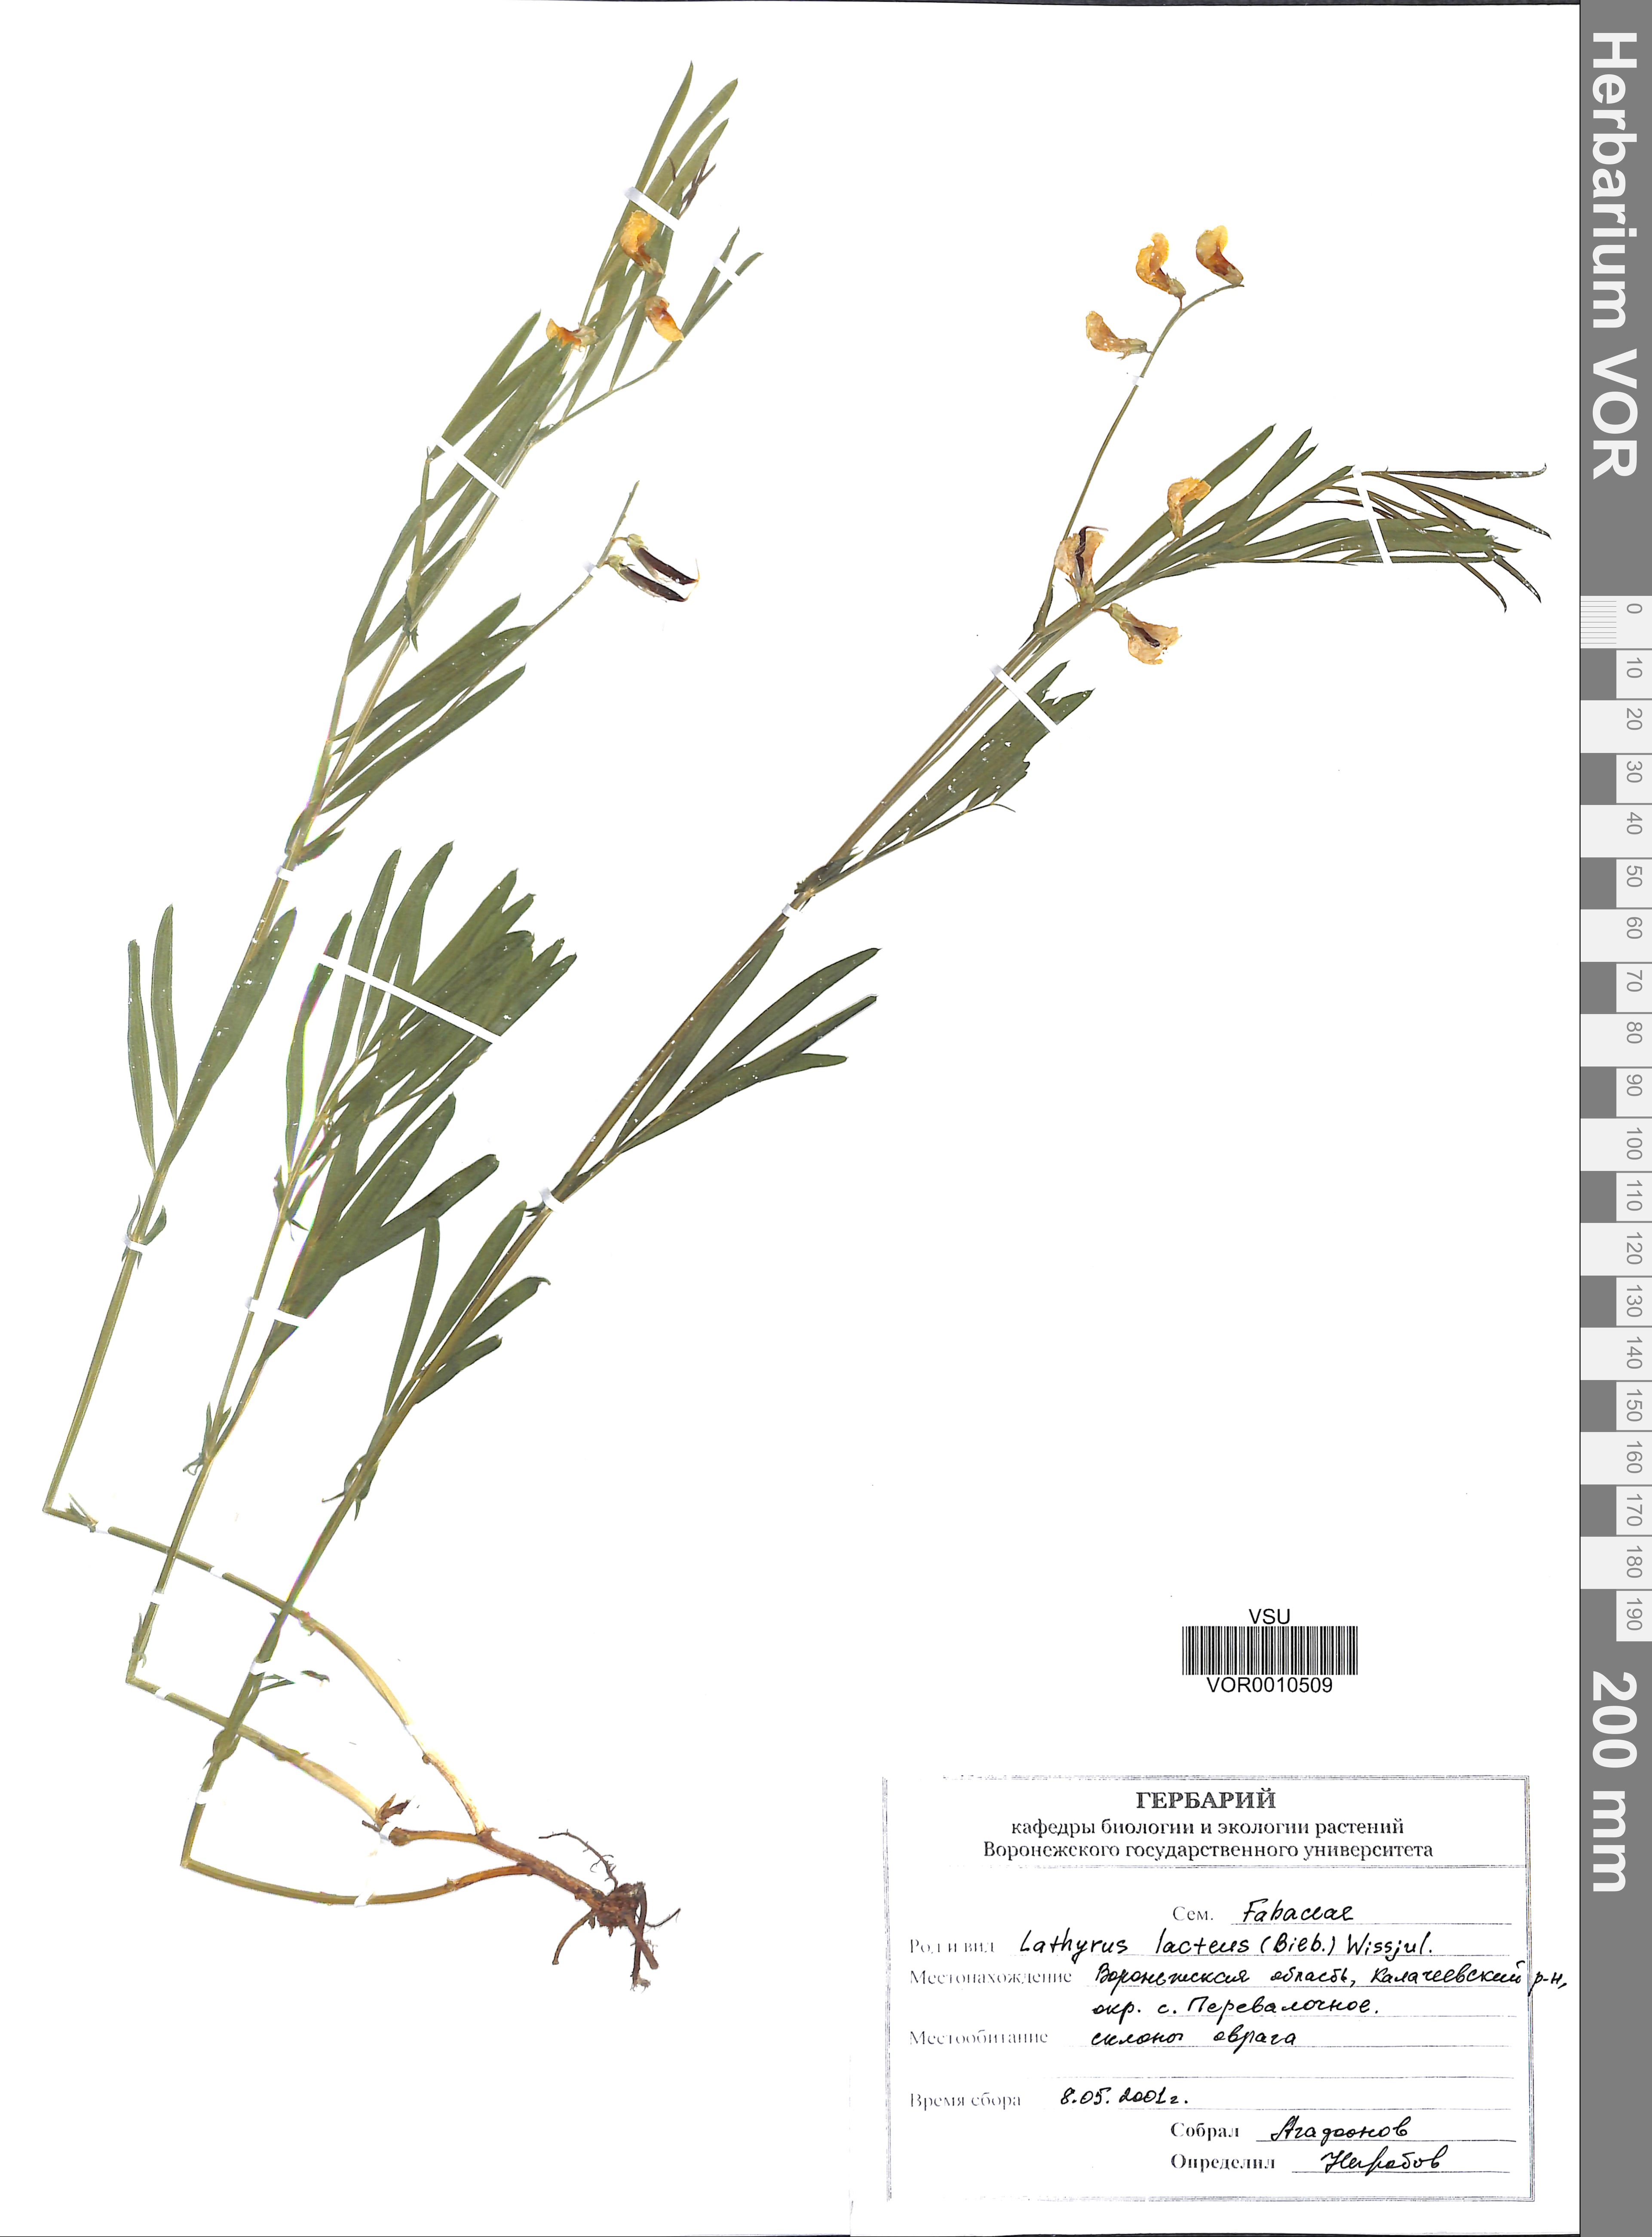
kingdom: Plantae
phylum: Tracheophyta
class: Magnoliopsida
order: Fabales
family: Fabaceae
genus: Lathyrus
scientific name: Lathyrus pannonicus
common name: Pea
